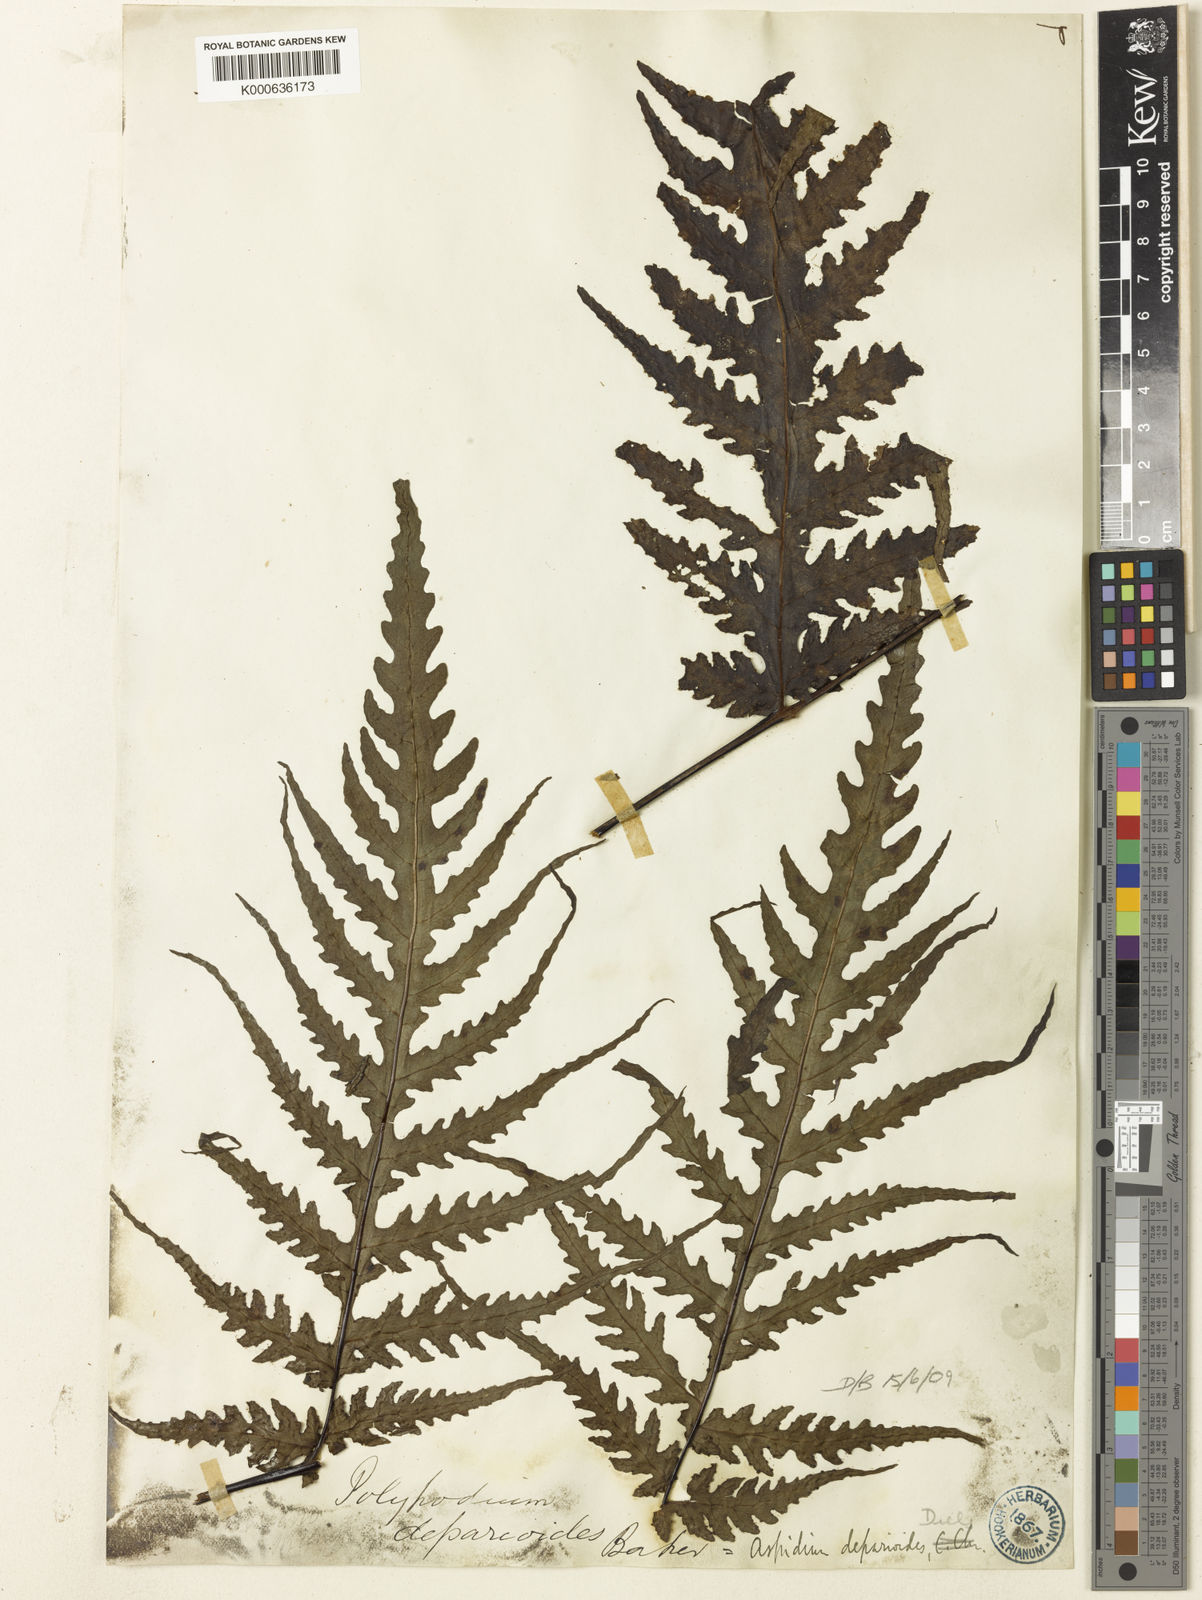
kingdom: Plantae
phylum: Tracheophyta
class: Polypodiopsida
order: Polypodiales
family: Tectariaceae
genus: Tectaria
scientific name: Tectaria godeffroyi
